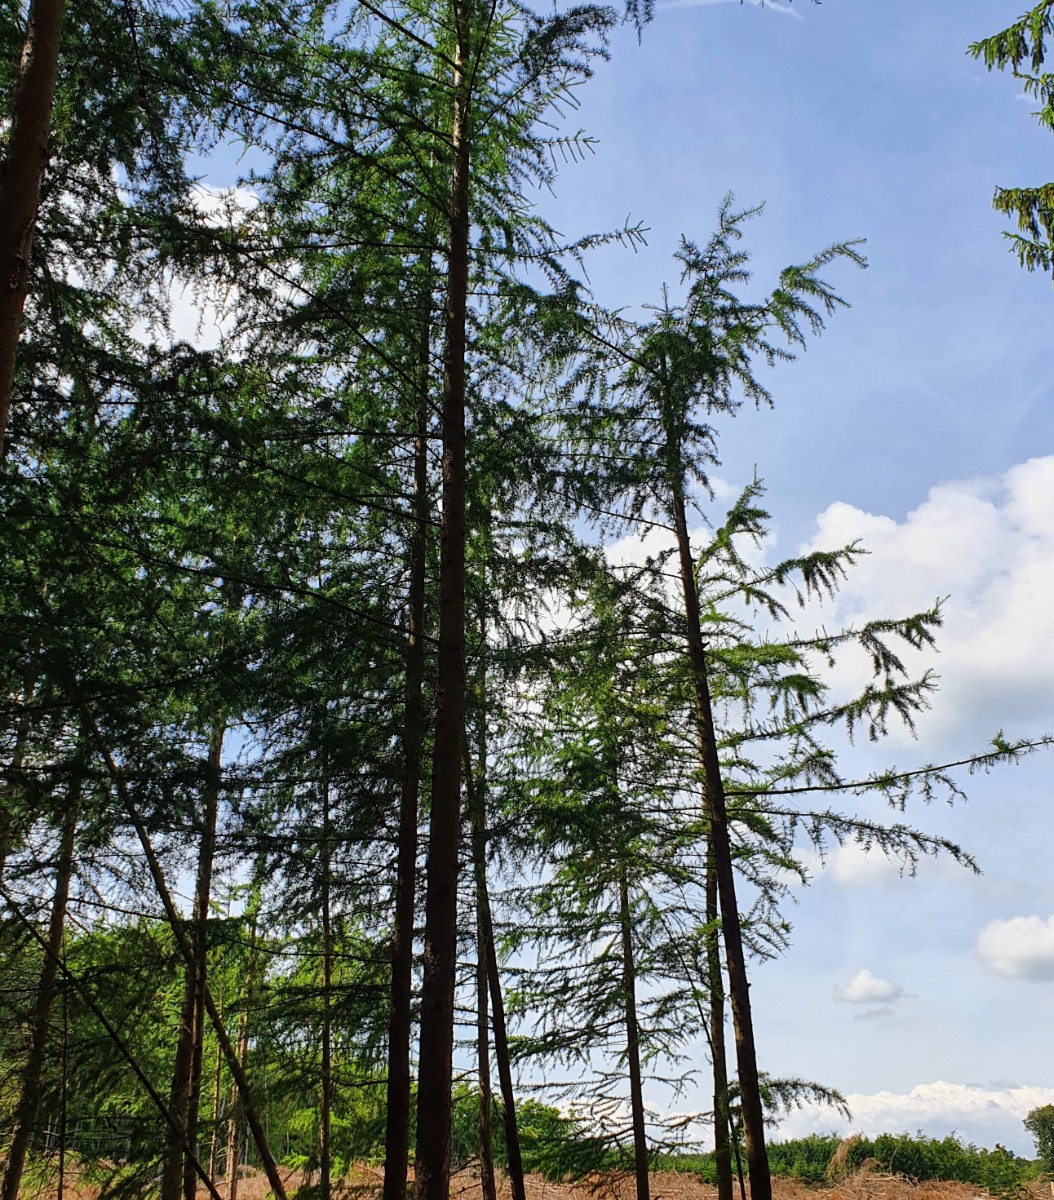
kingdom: Fungi
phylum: Ascomycota
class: Sordariomycetes
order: Diaporthales
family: Diaporthaceae
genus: Diaporthe
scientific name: Diaporthe juniperivora
